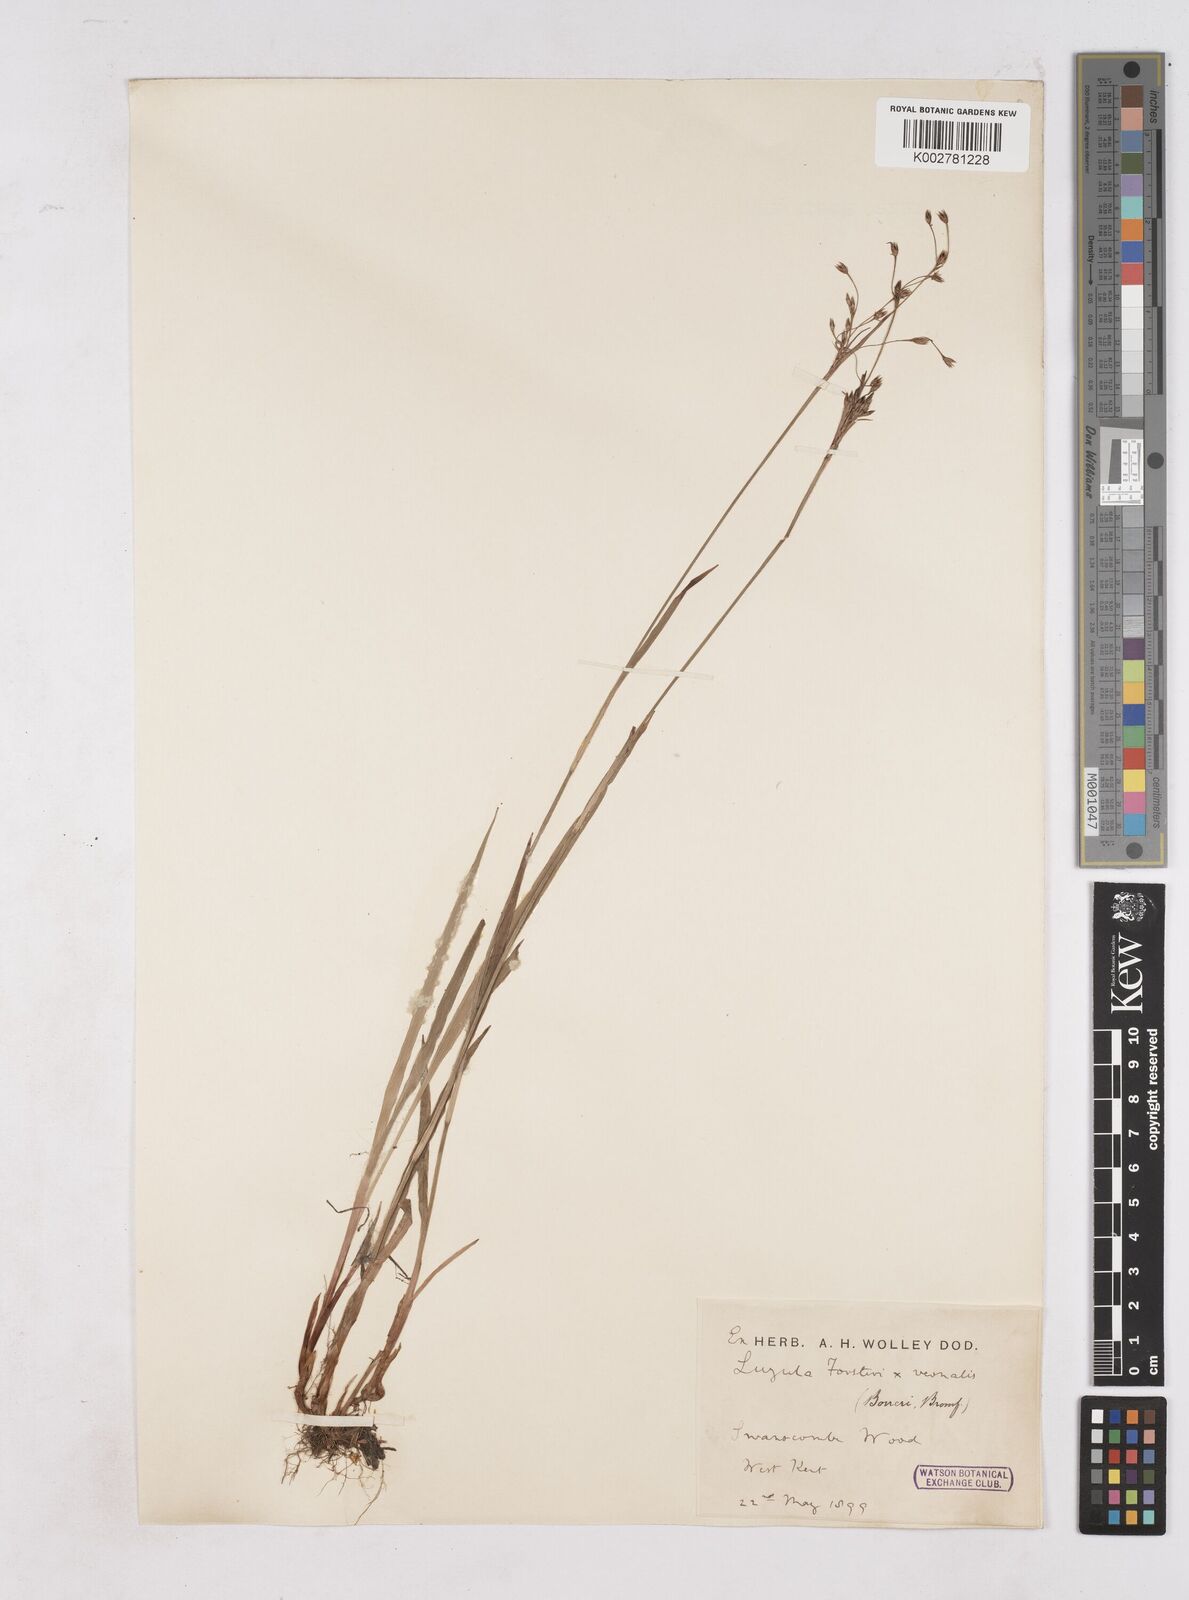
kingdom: Plantae
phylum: Tracheophyta
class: Liliopsida
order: Poales
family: Juncaceae
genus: Luzula
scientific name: Luzula forsteri
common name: Southern wood-rush
